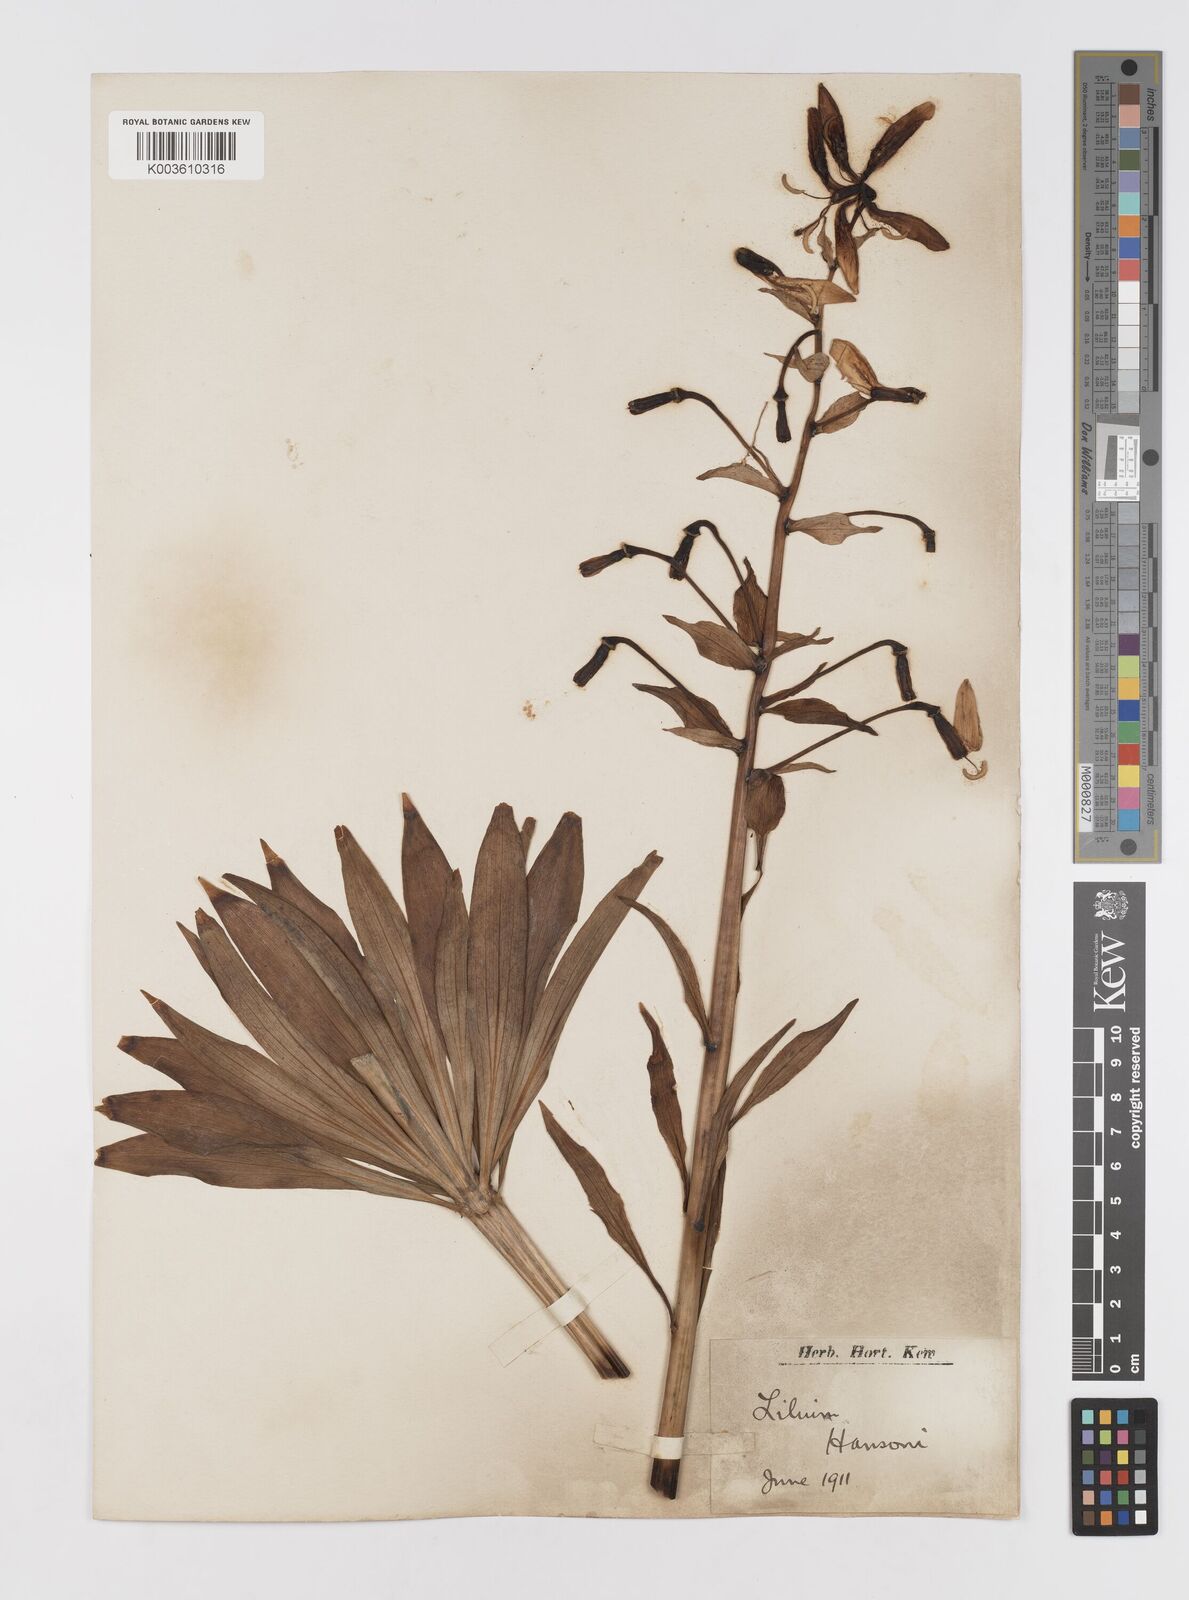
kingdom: Plantae
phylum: Tracheophyta
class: Liliopsida
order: Liliales
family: Liliaceae
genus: Lilium
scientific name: Lilium hansonii
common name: Hanson's lily
